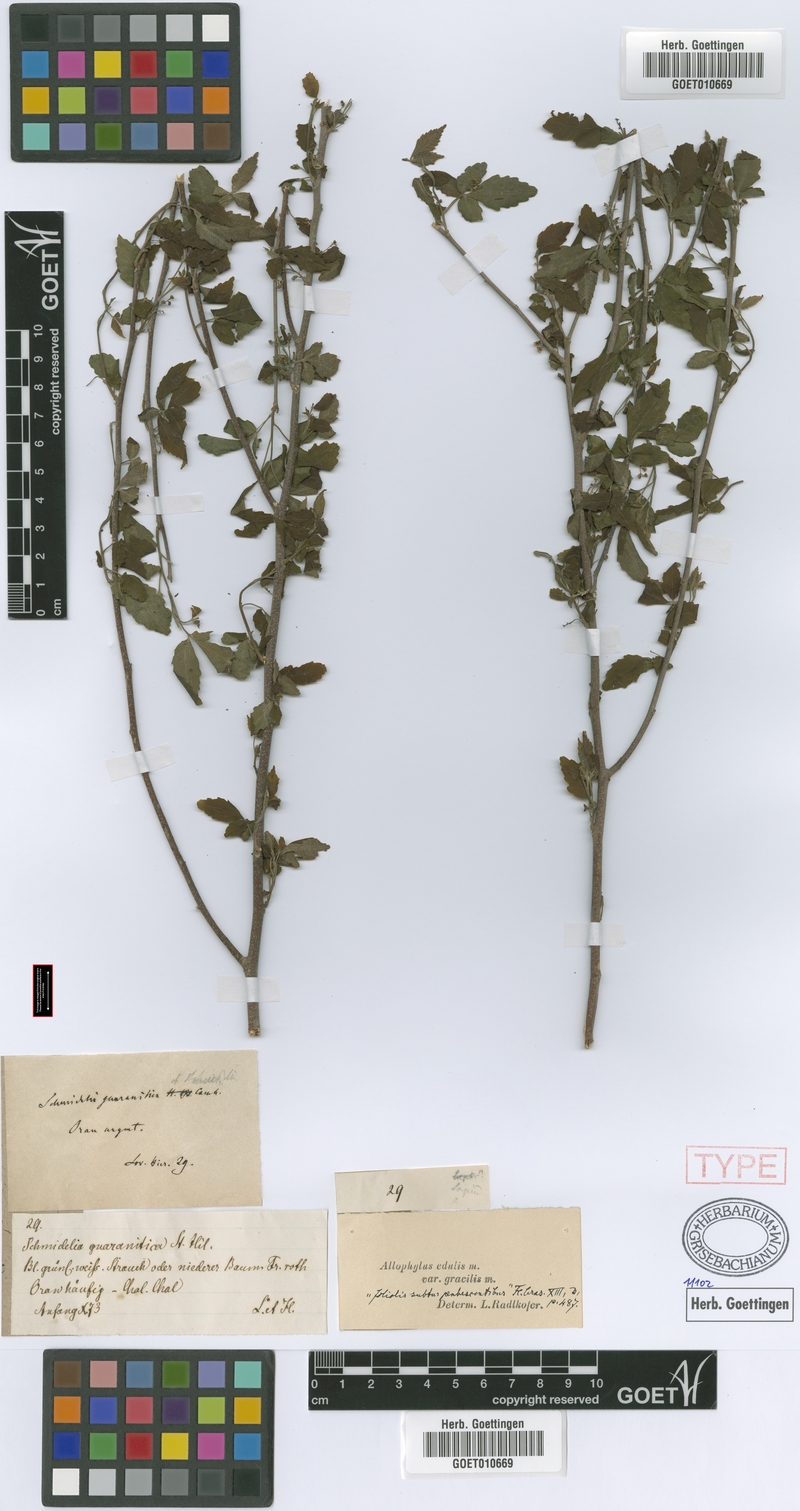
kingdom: Plantae
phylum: Tracheophyta
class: Magnoliopsida
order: Sapindales
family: Sapindaceae
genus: Allophylus
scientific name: Allophylus edulis
